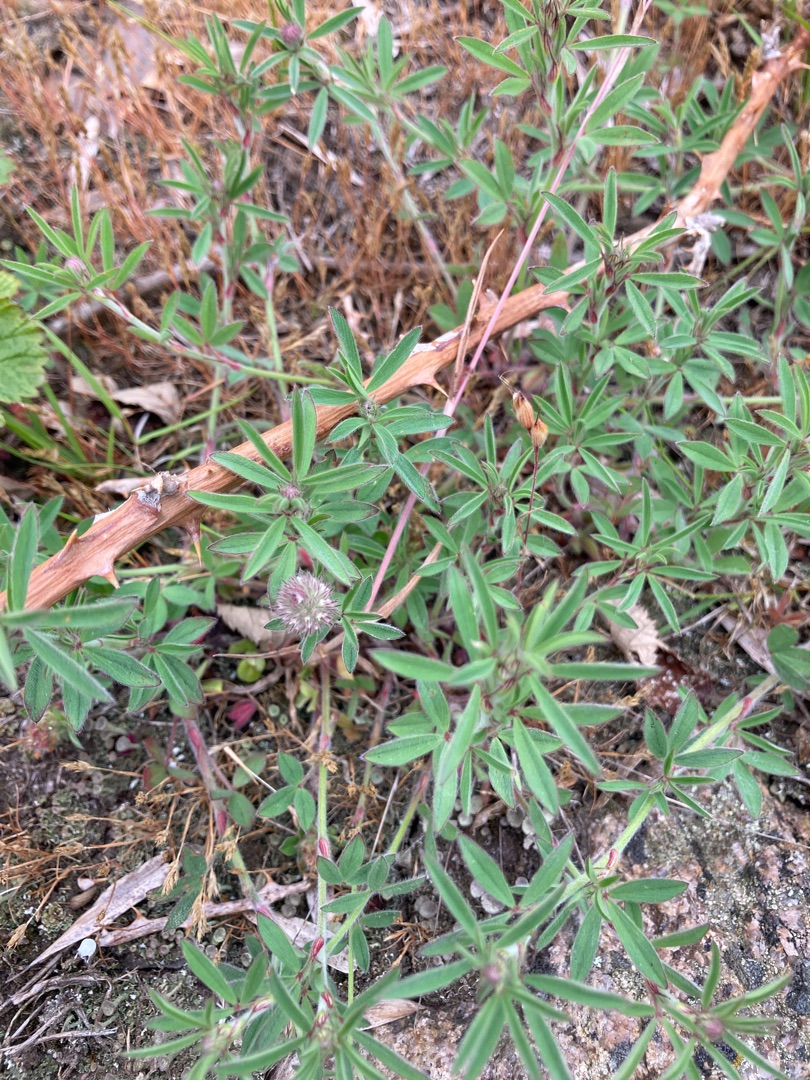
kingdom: Plantae
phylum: Tracheophyta
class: Magnoliopsida
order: Fabales
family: Fabaceae
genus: Trifolium
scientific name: Trifolium arvense
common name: Hare-kløver
